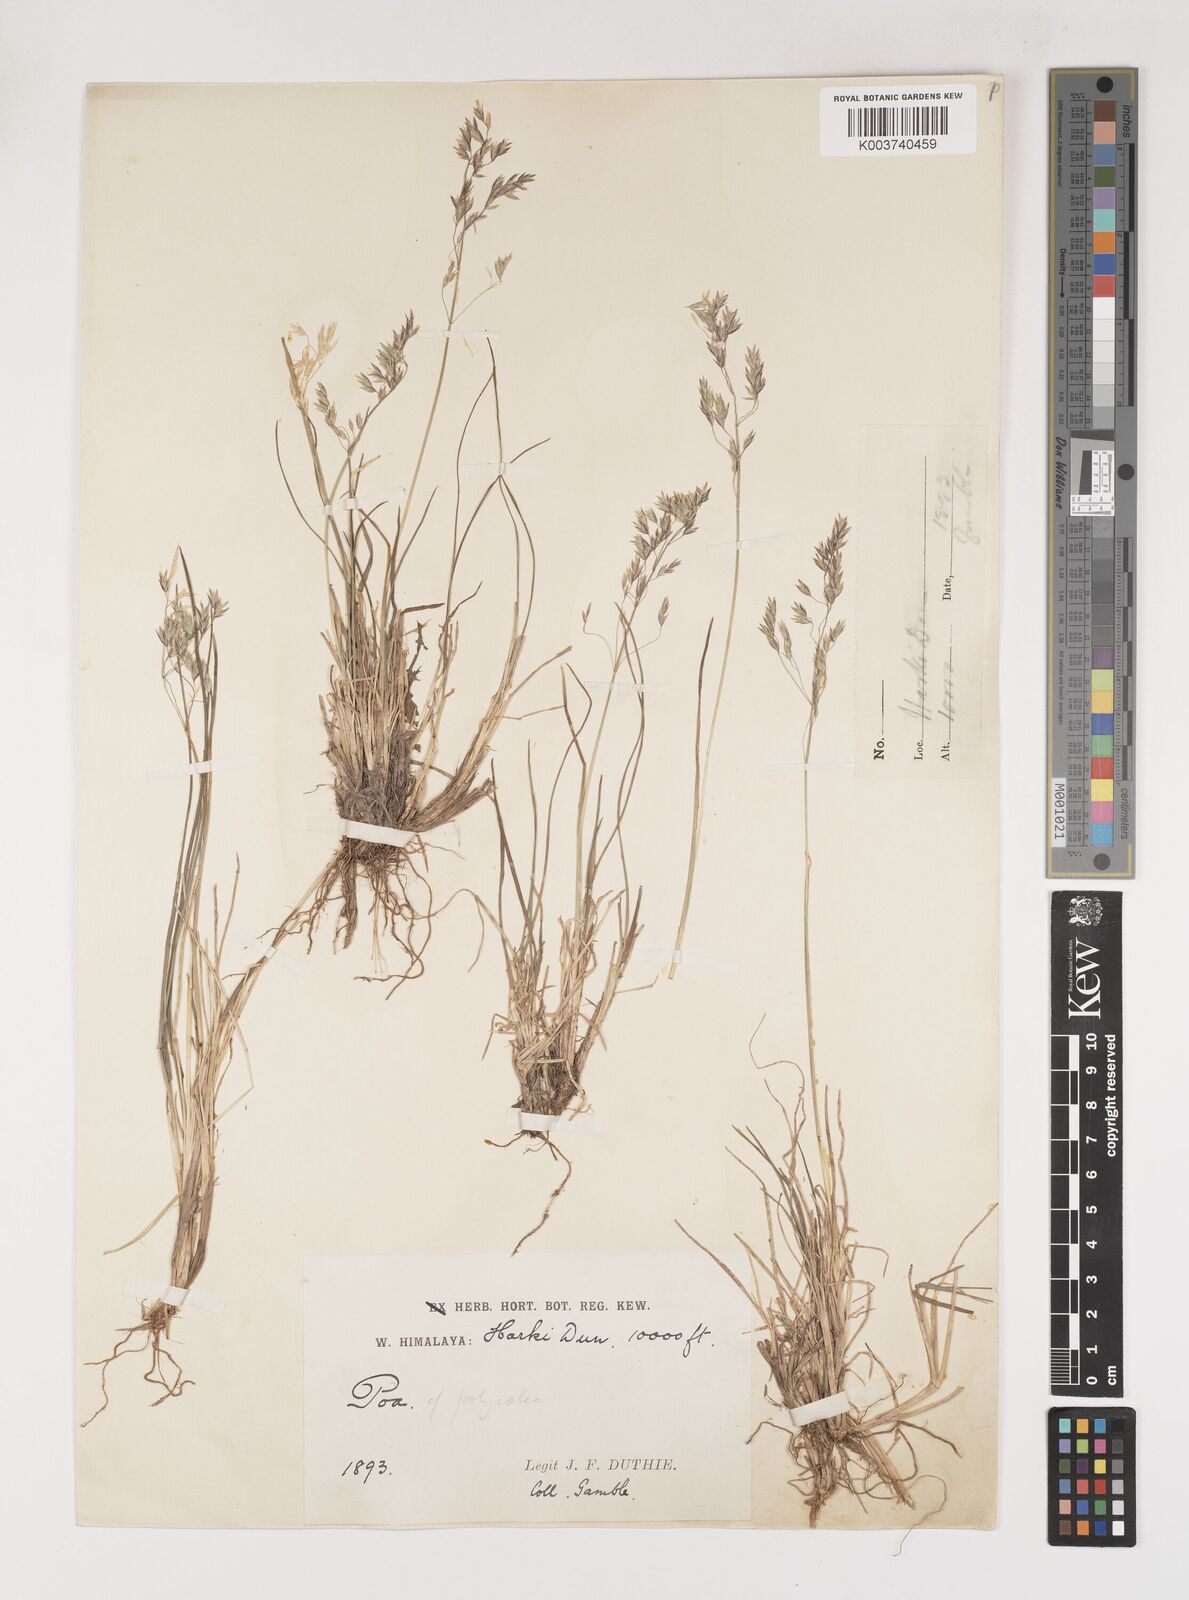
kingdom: Plantae
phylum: Tracheophyta
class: Liliopsida
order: Poales
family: Poaceae
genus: Poa
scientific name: Poa polycolea
